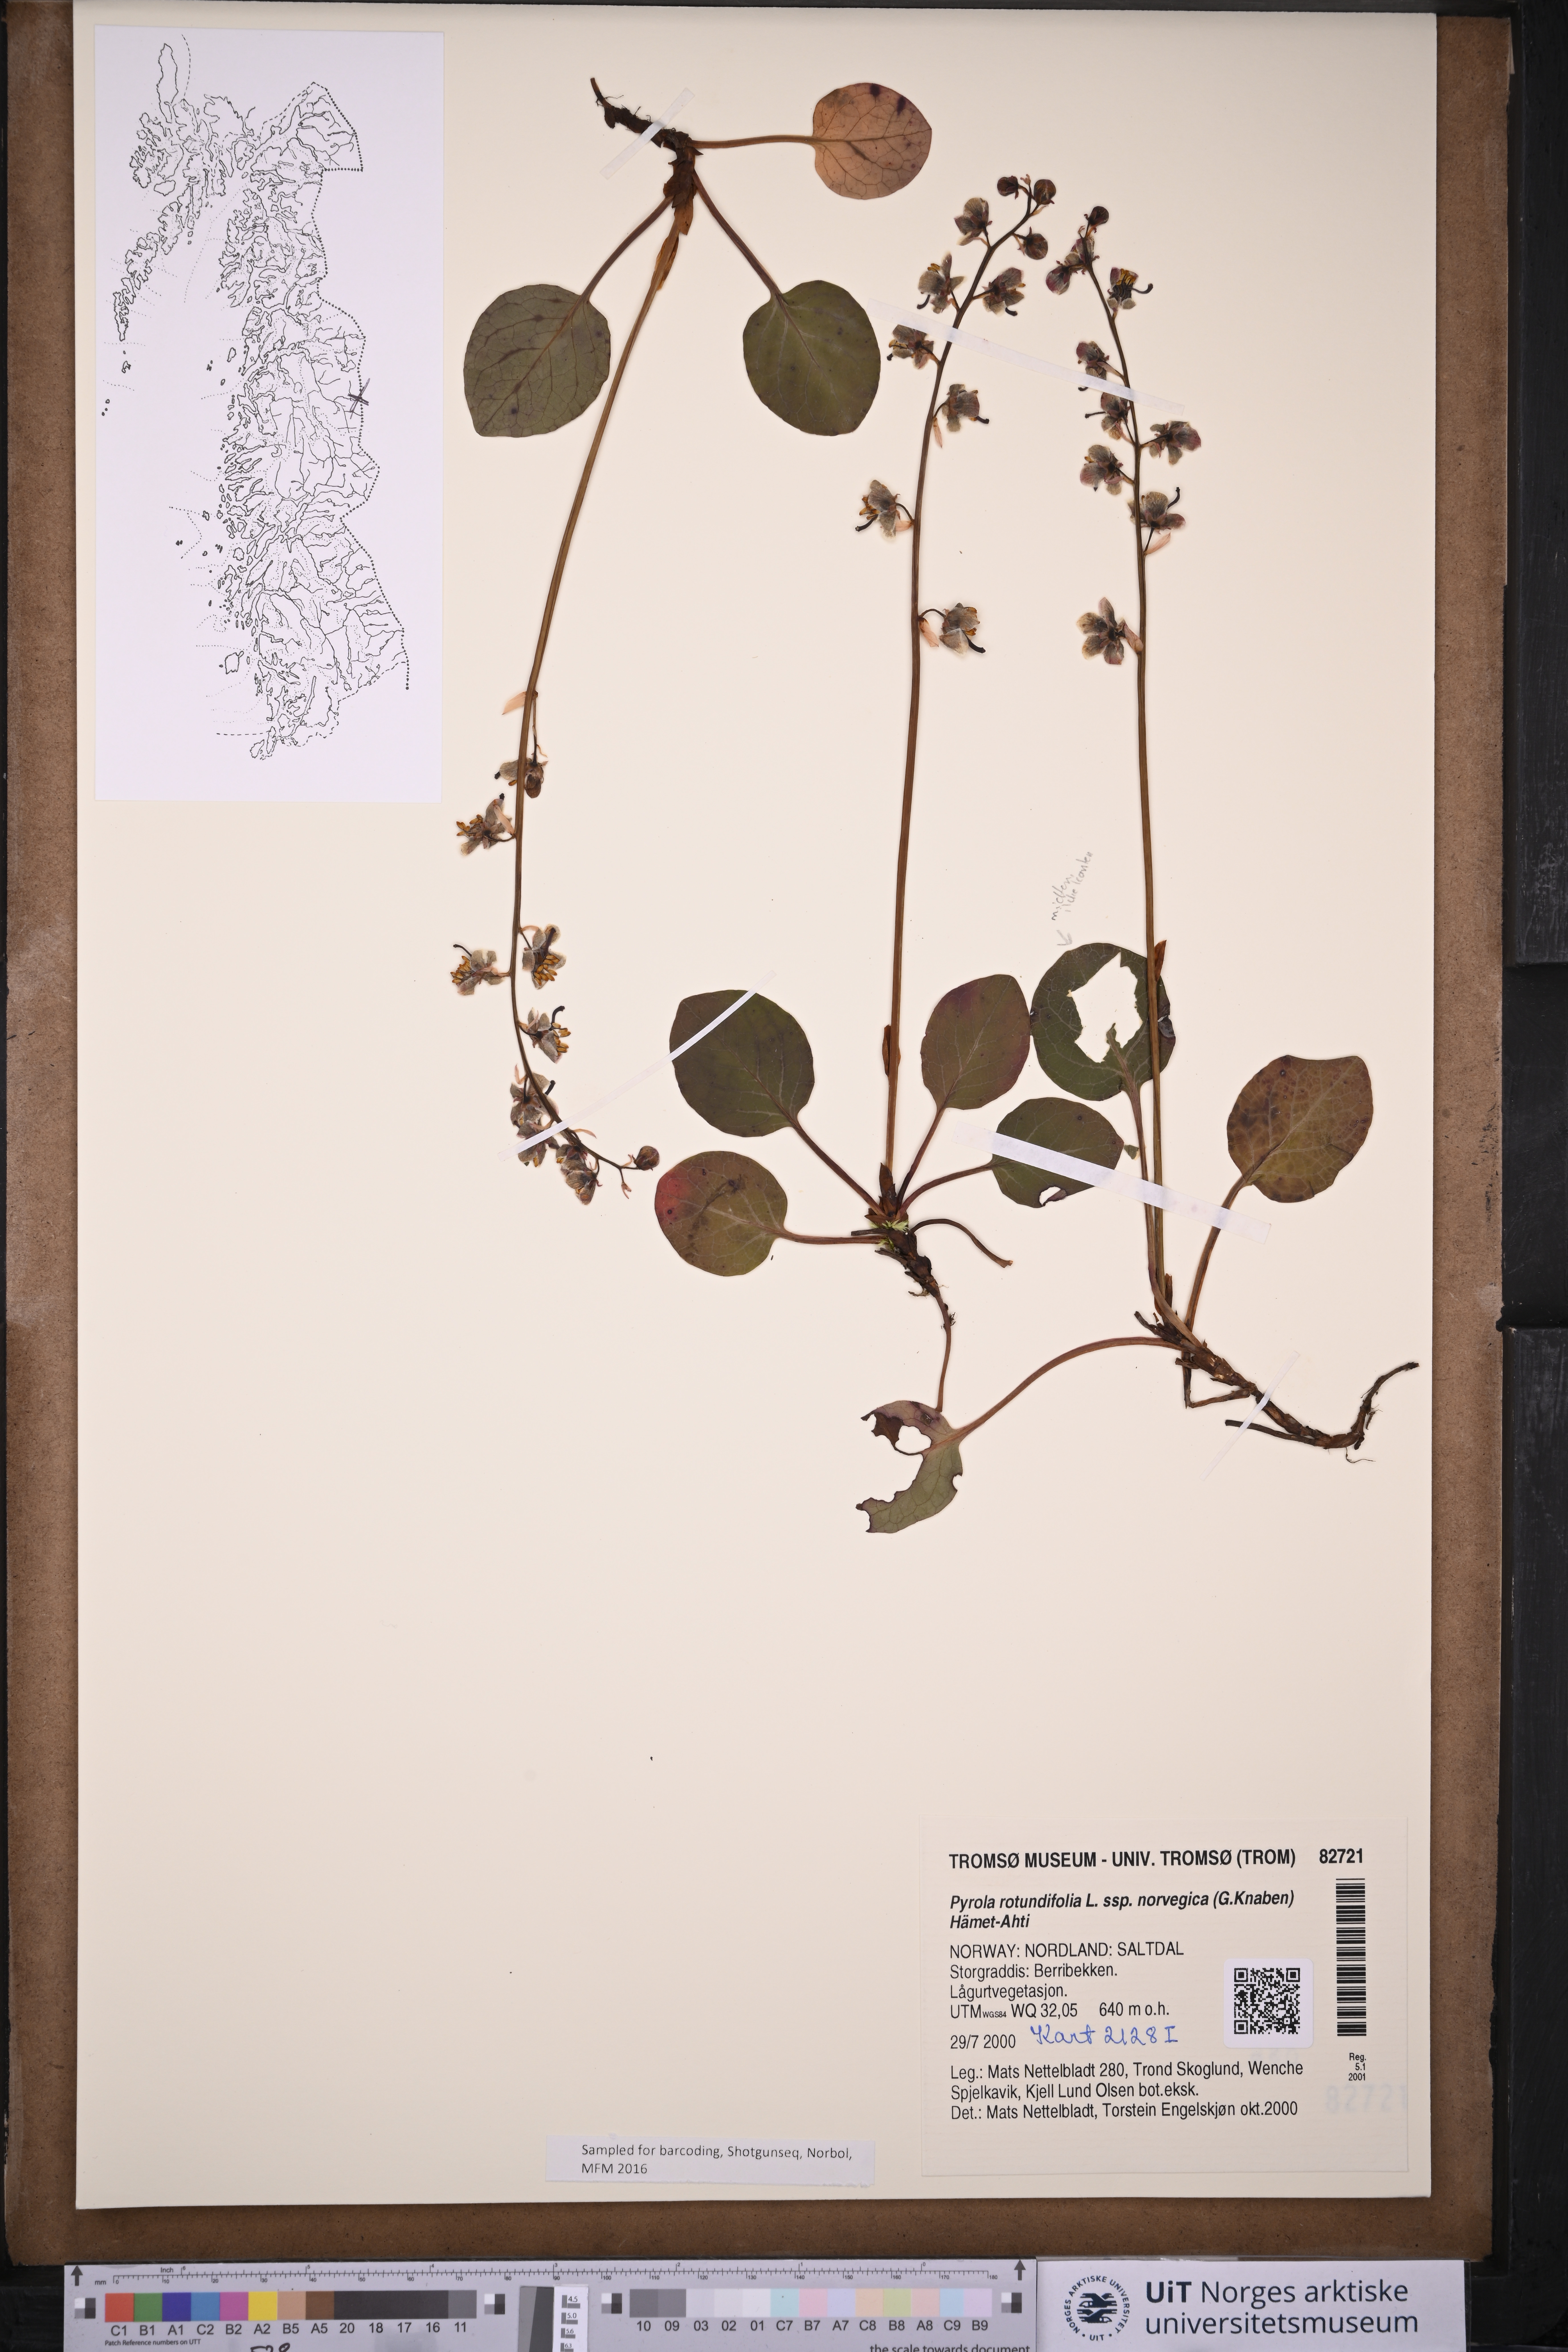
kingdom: Plantae
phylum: Tracheophyta
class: Magnoliopsida
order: Ericales
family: Ericaceae
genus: Pyrola
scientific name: Pyrola rotundifolia
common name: Round-leaved wintergreen
